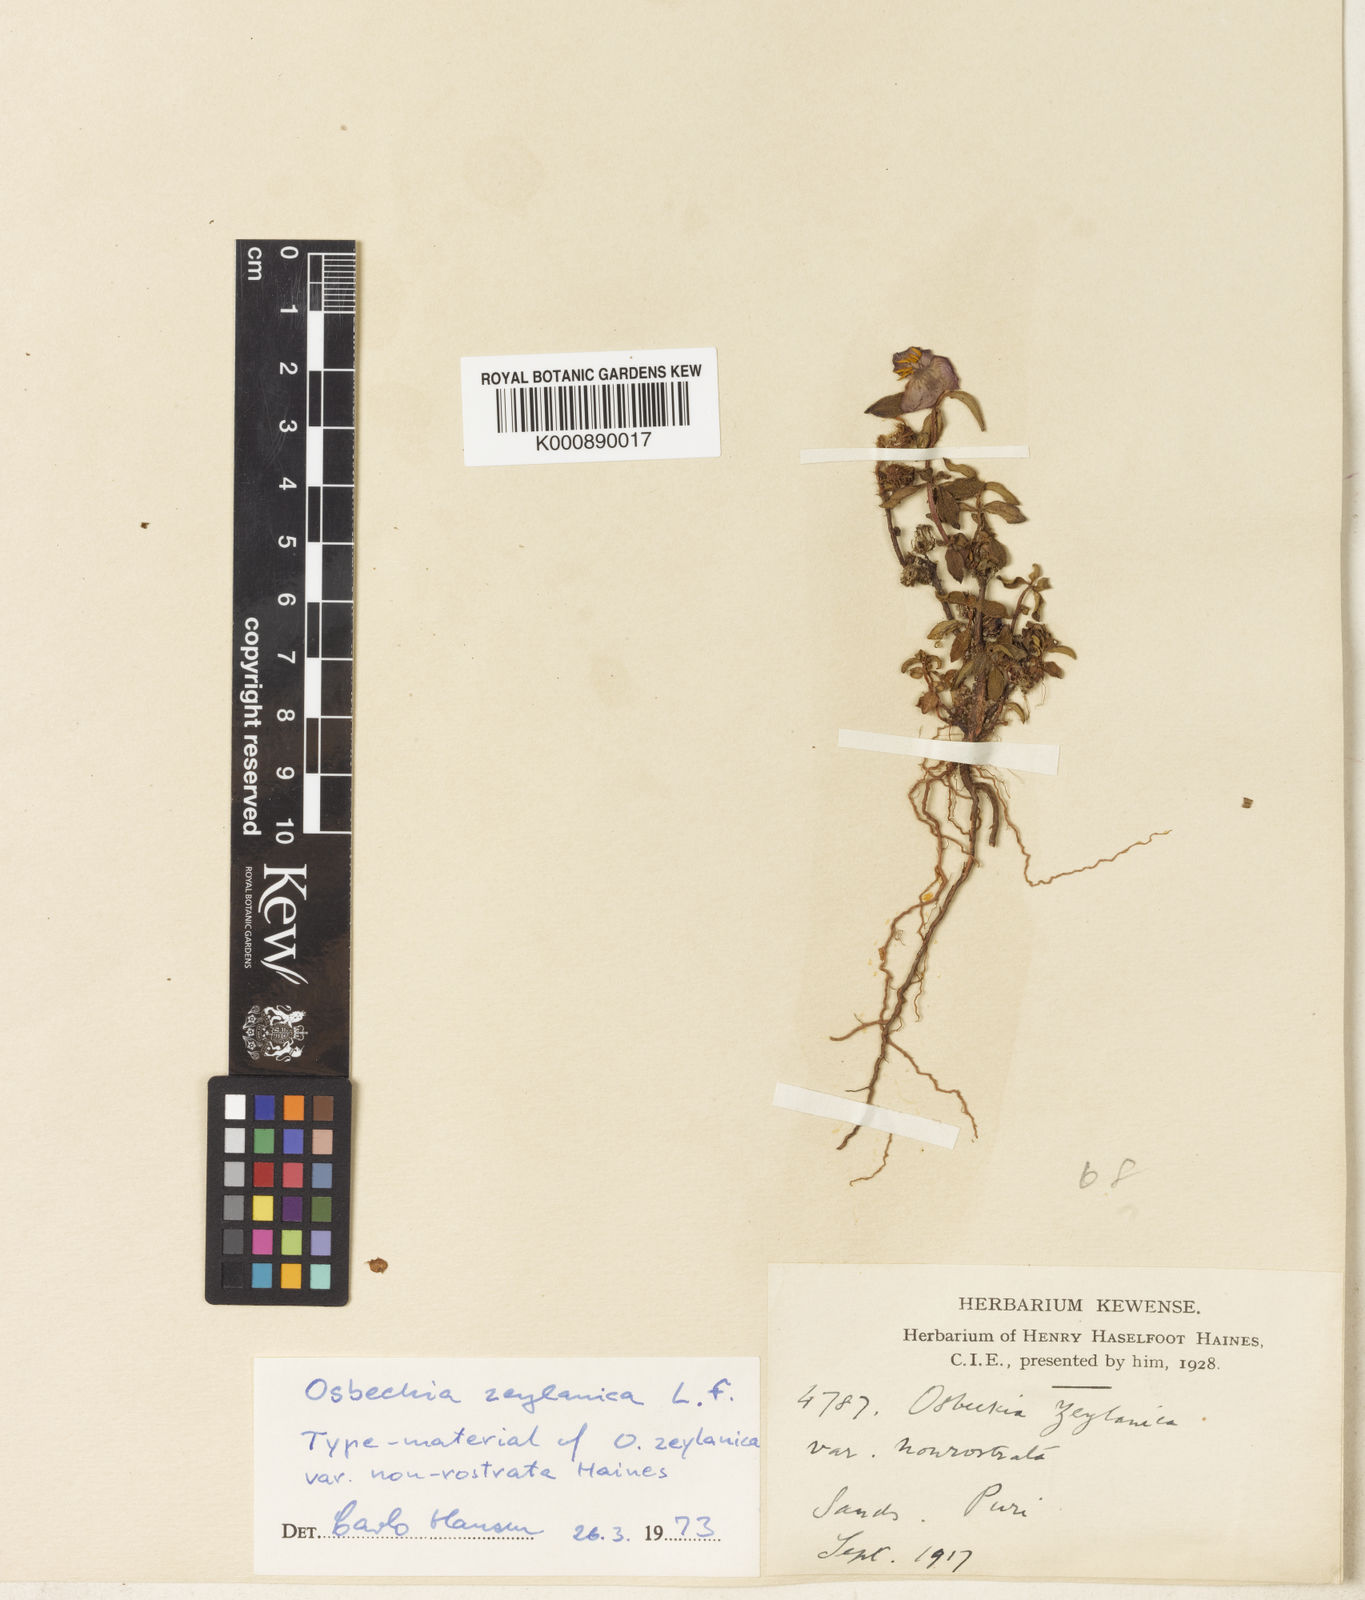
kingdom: Plantae
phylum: Tracheophyta
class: Magnoliopsida
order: Myrtales
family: Melastomataceae
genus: Osbeckia
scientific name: Osbeckia zeylanica
